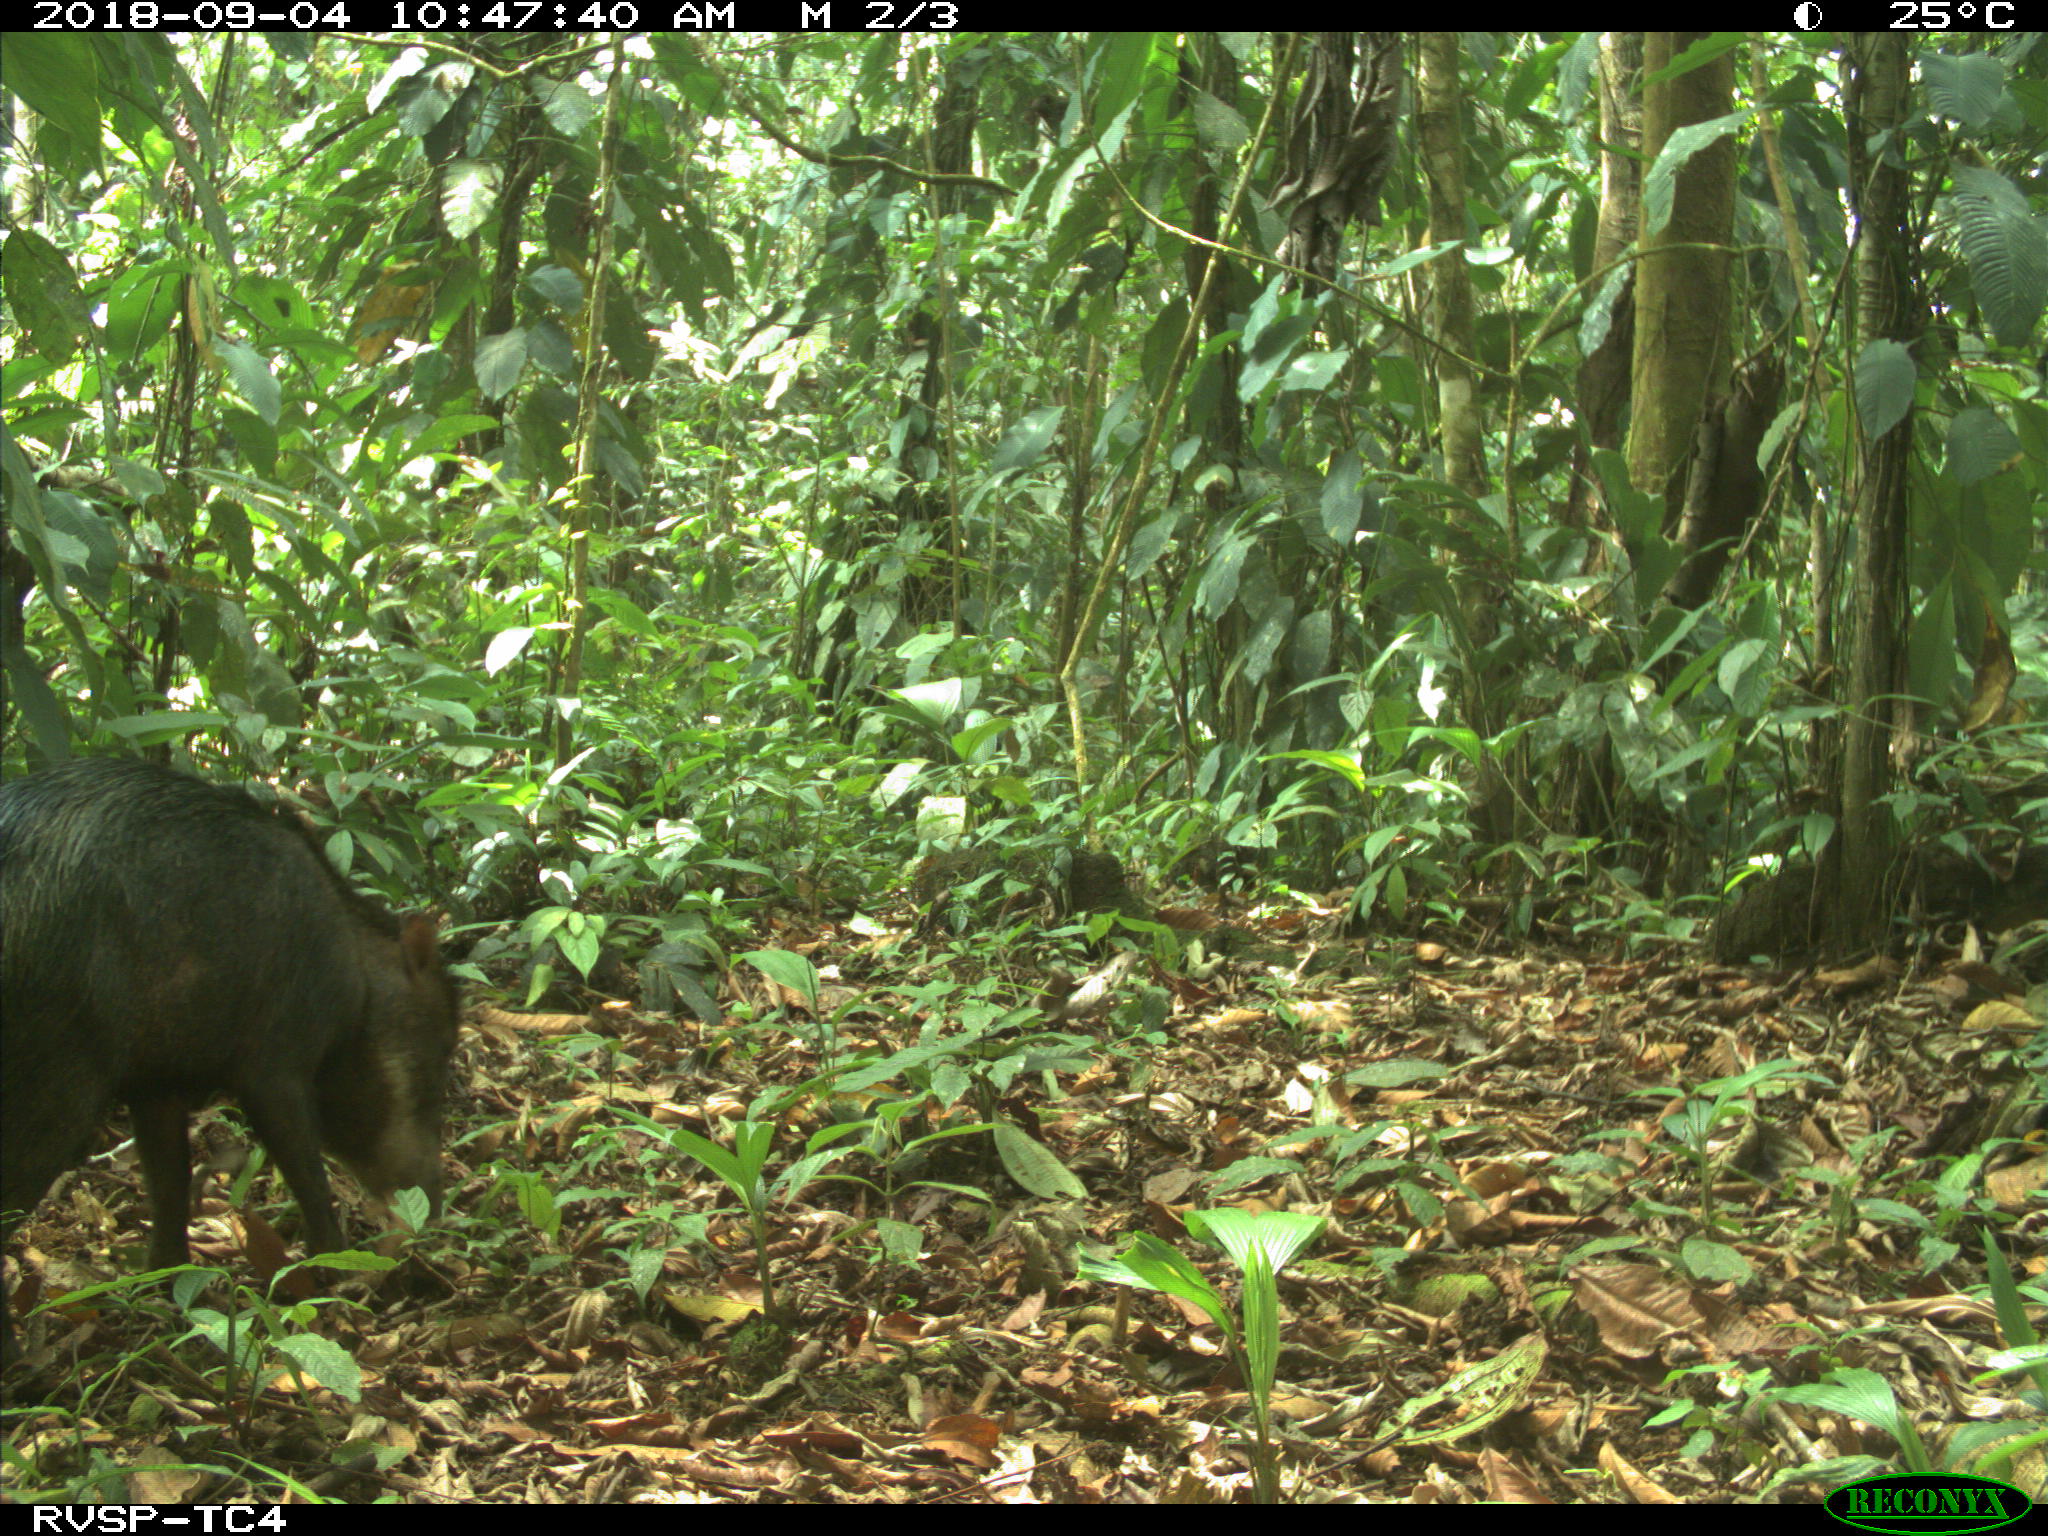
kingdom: Animalia
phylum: Chordata
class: Mammalia
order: Artiodactyla
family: Tayassuidae
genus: Tayassu
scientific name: Tayassu pecari
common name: White-lipped peccary
